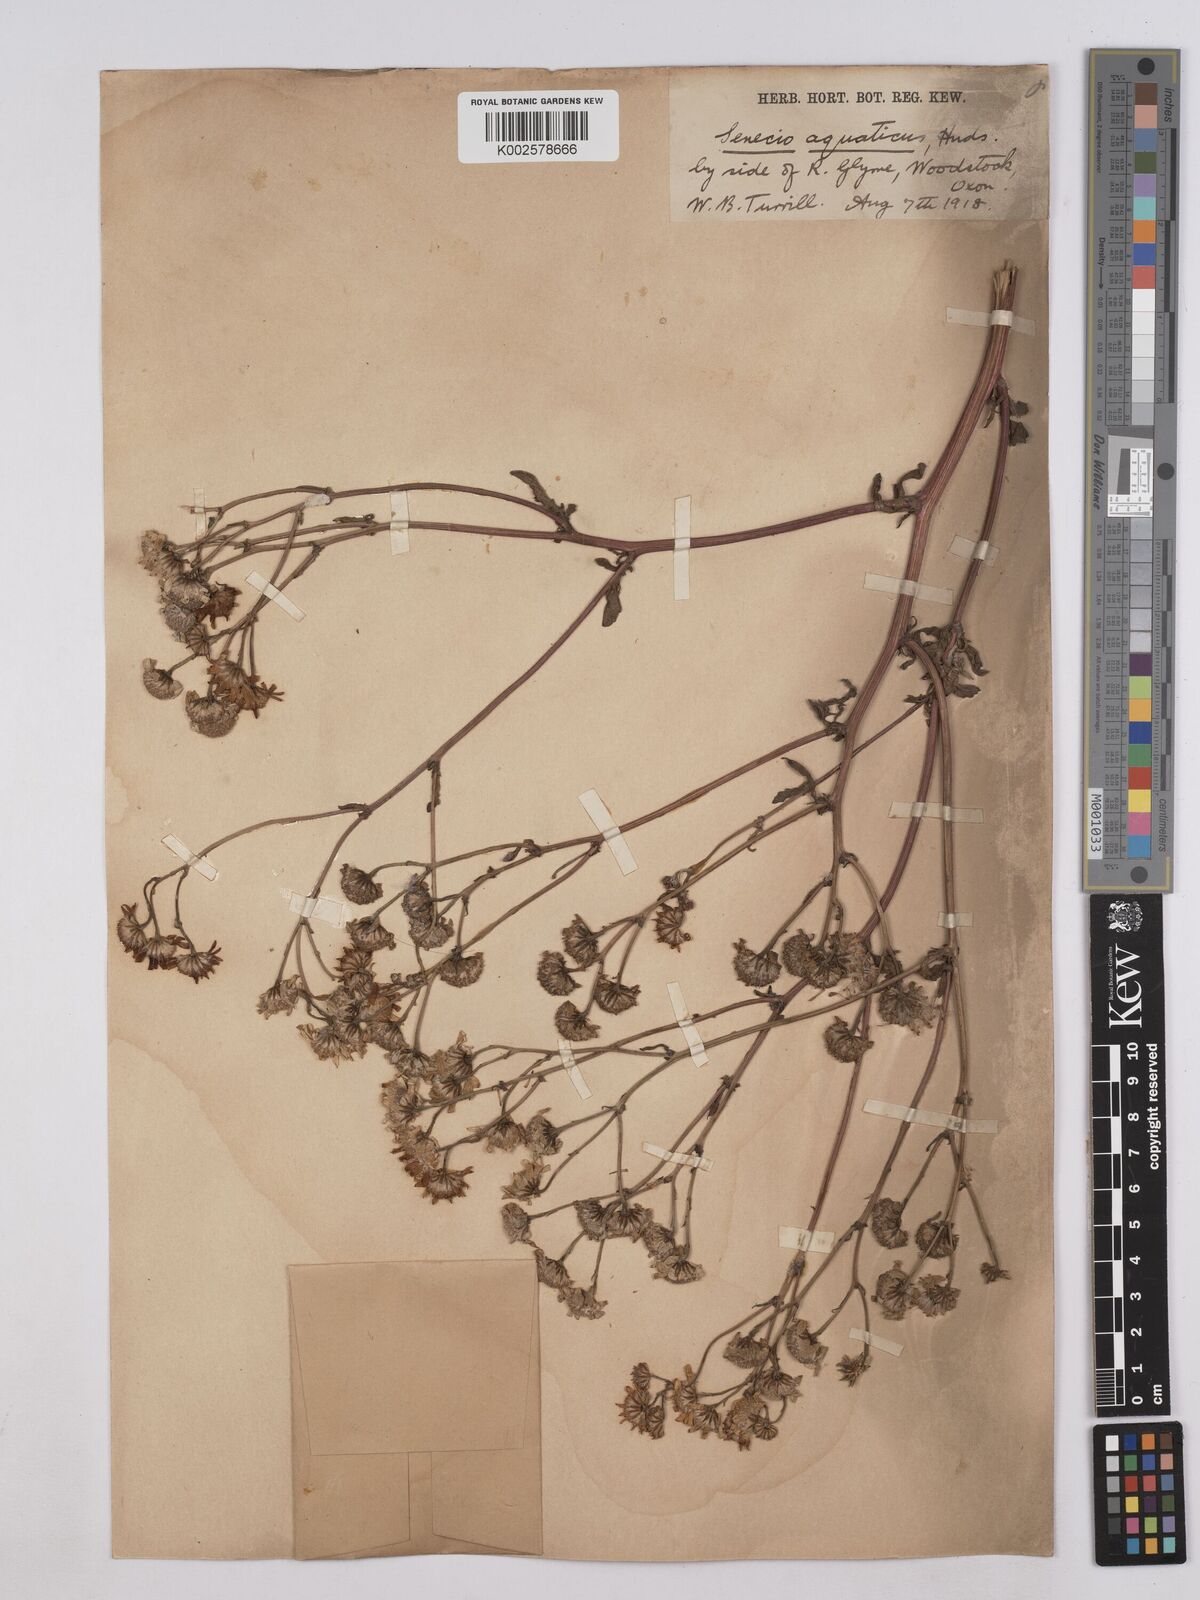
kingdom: Plantae
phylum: Tracheophyta
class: Magnoliopsida
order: Asterales
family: Asteraceae
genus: Jacobaea
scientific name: Jacobaea aquatica
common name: Water ragwort
